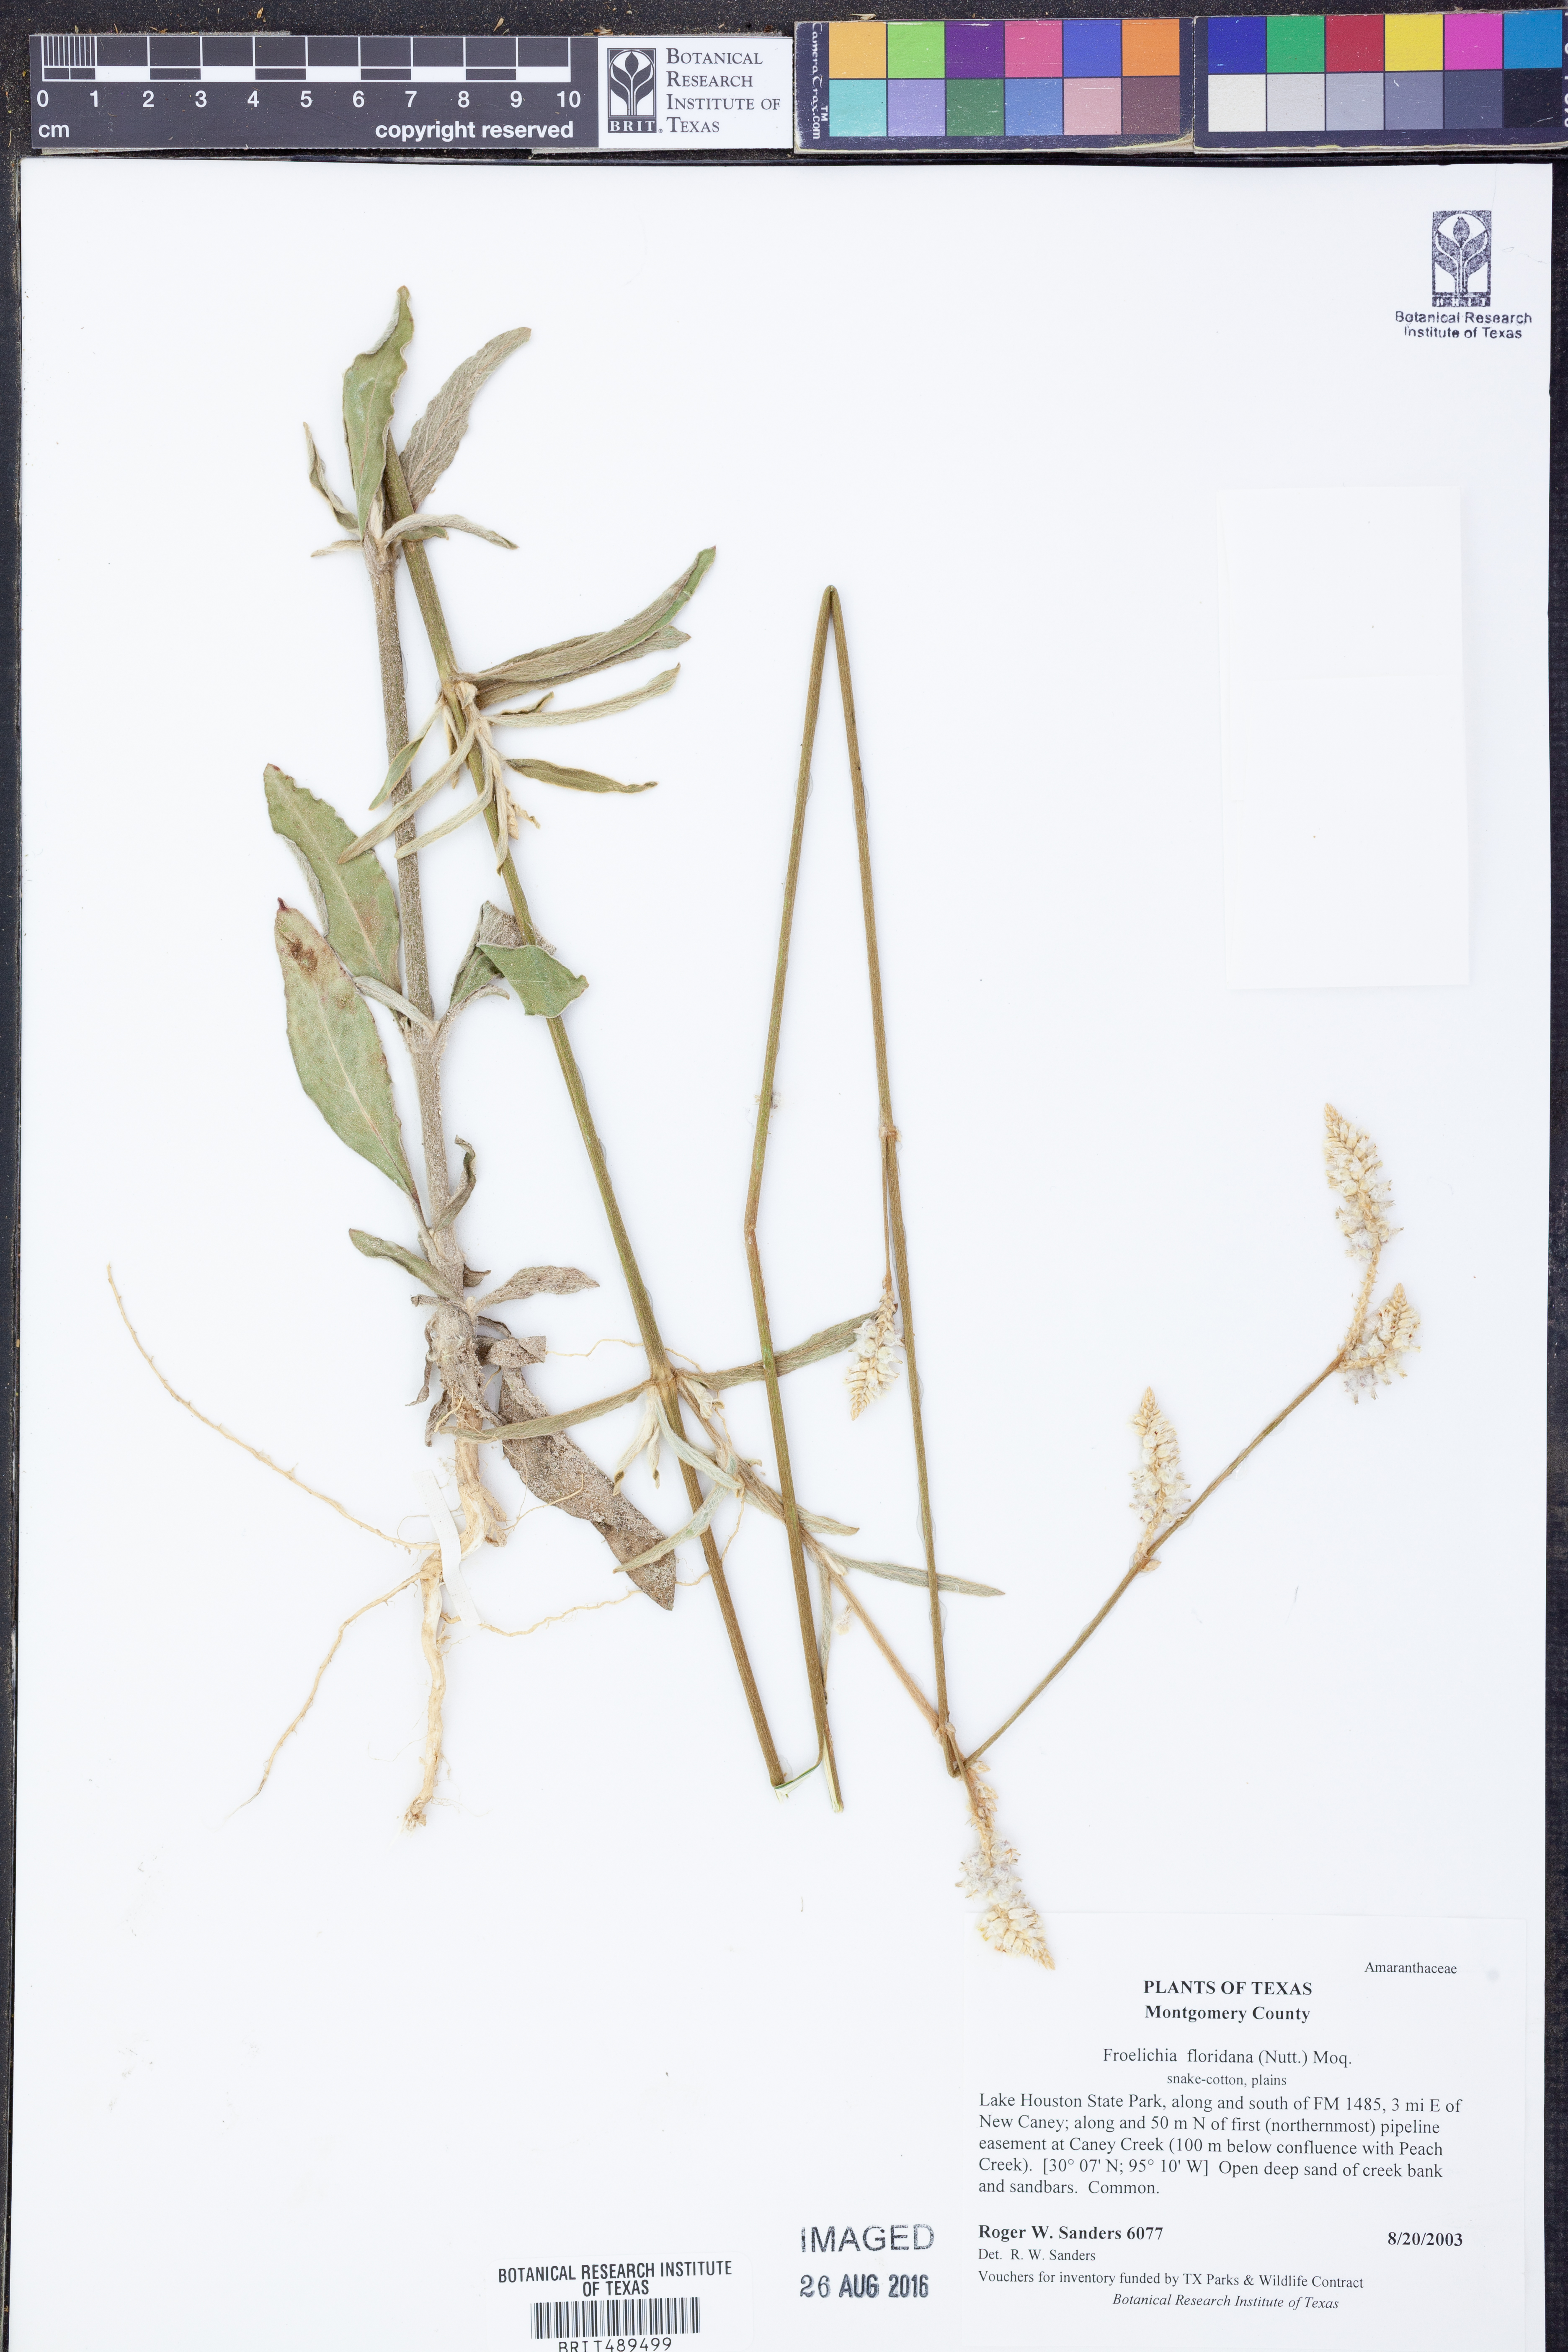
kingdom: Plantae
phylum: Tracheophyta
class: Magnoliopsida
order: Caryophyllales
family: Amaranthaceae
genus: Froelichia
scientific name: Froelichia floridana
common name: Florida snake-cotton
